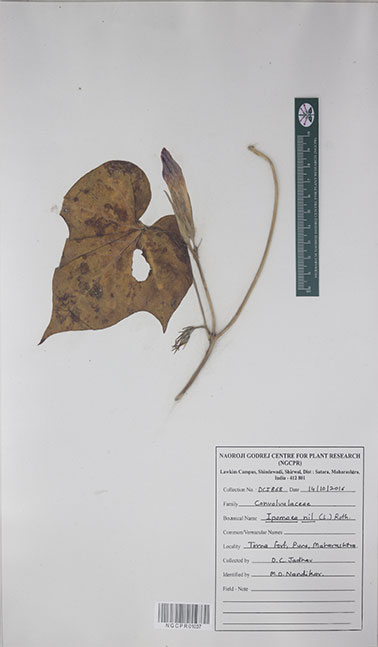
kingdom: Plantae
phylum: Tracheophyta
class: Magnoliopsida
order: Solanales
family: Convolvulaceae
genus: Ipomoea
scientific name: Ipomoea nil
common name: Japanese morning-glory
